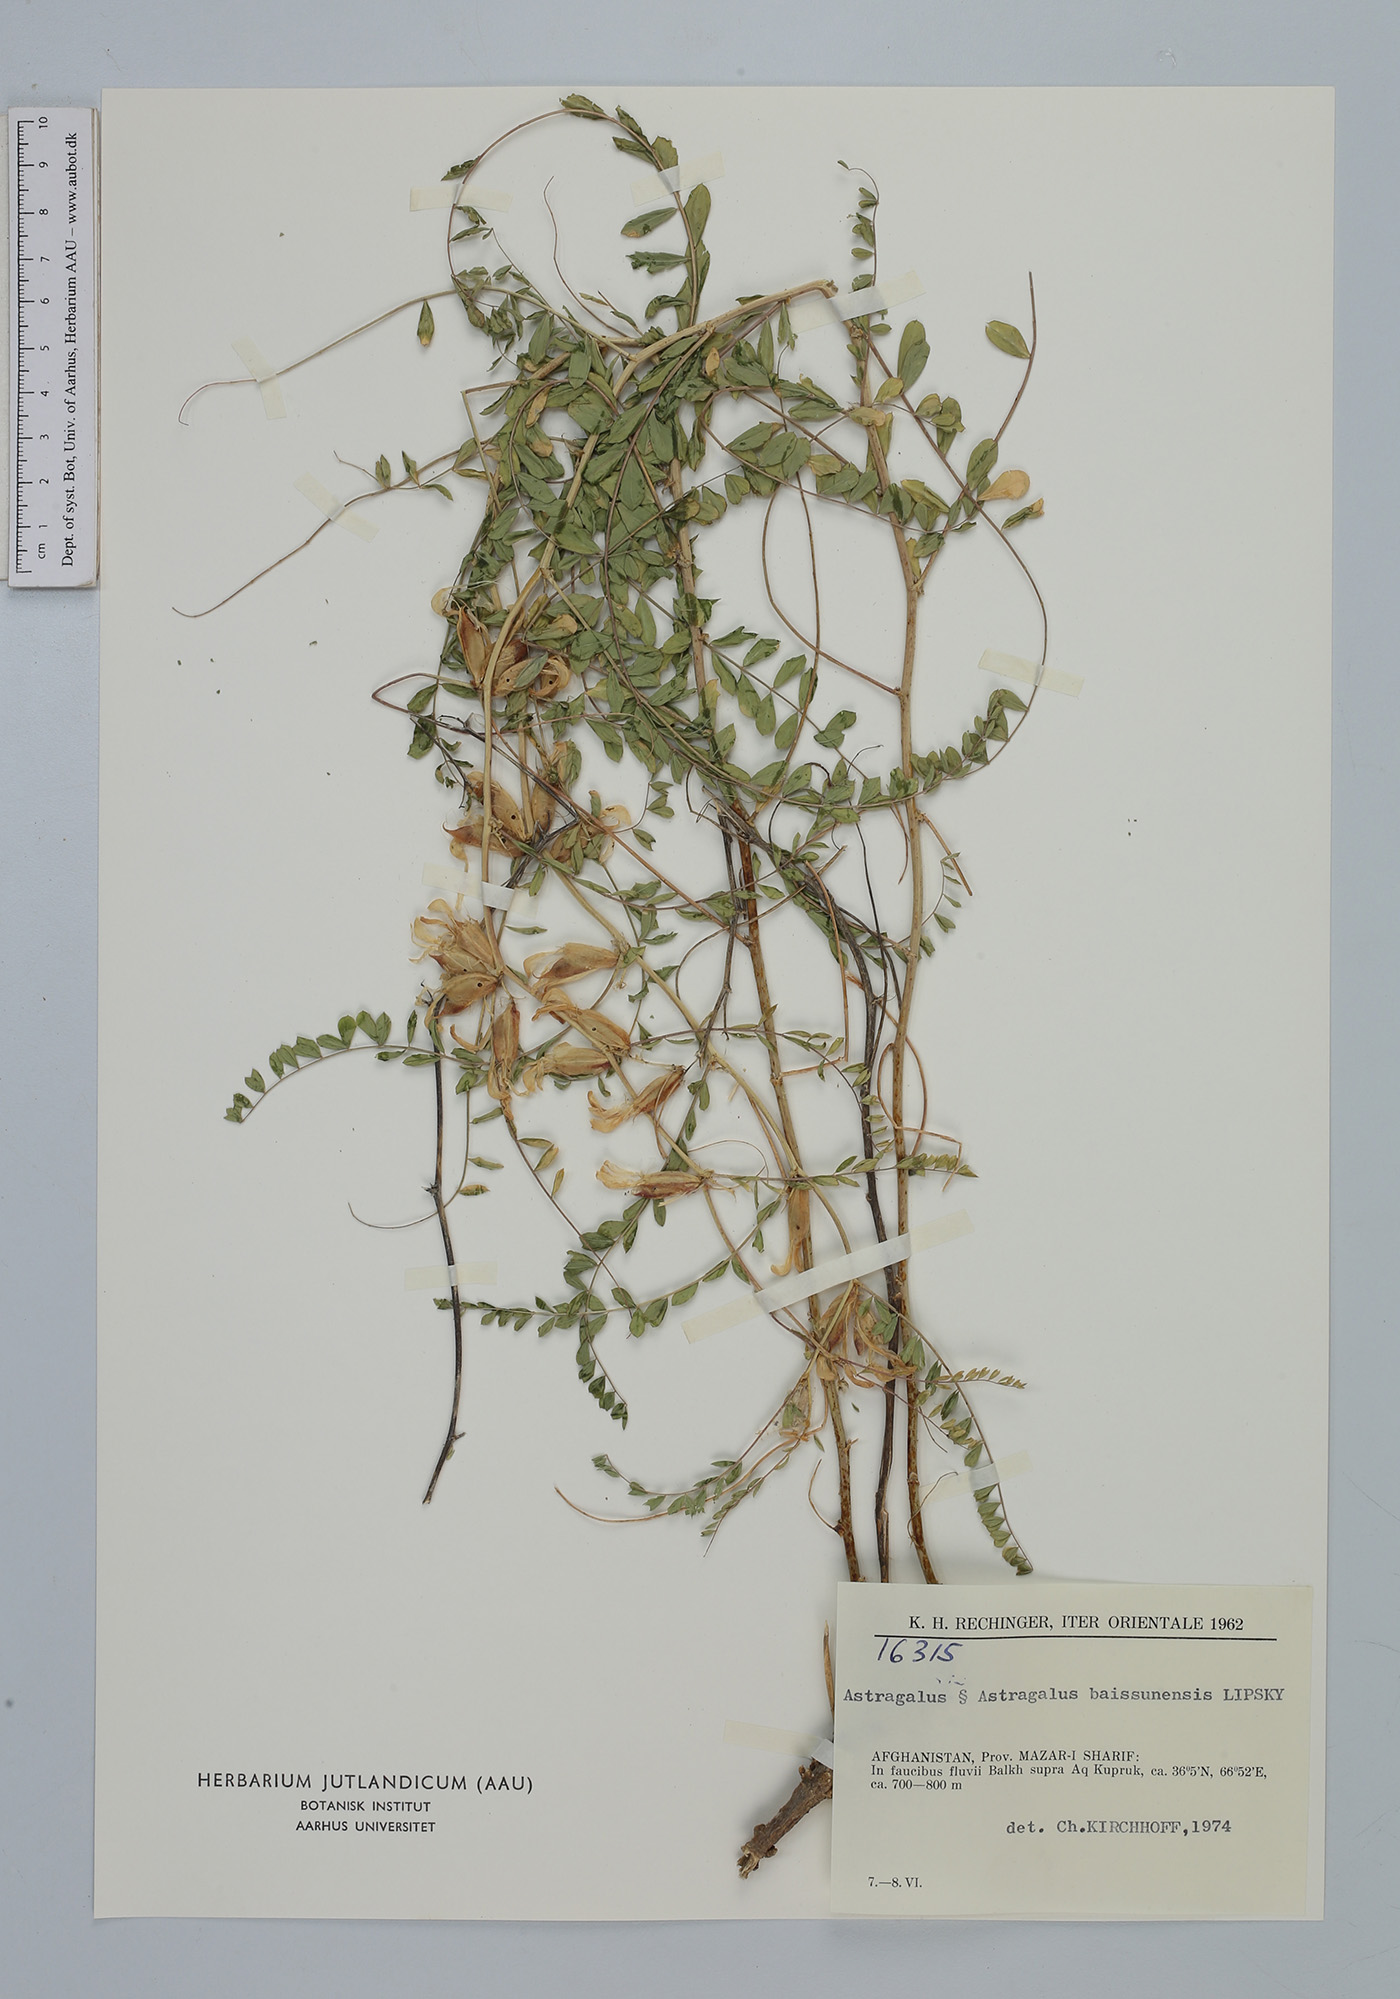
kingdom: Plantae
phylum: Tracheophyta
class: Magnoliopsida
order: Fabales
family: Fabaceae
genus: Astragalus
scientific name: Astragalus baissunensis
